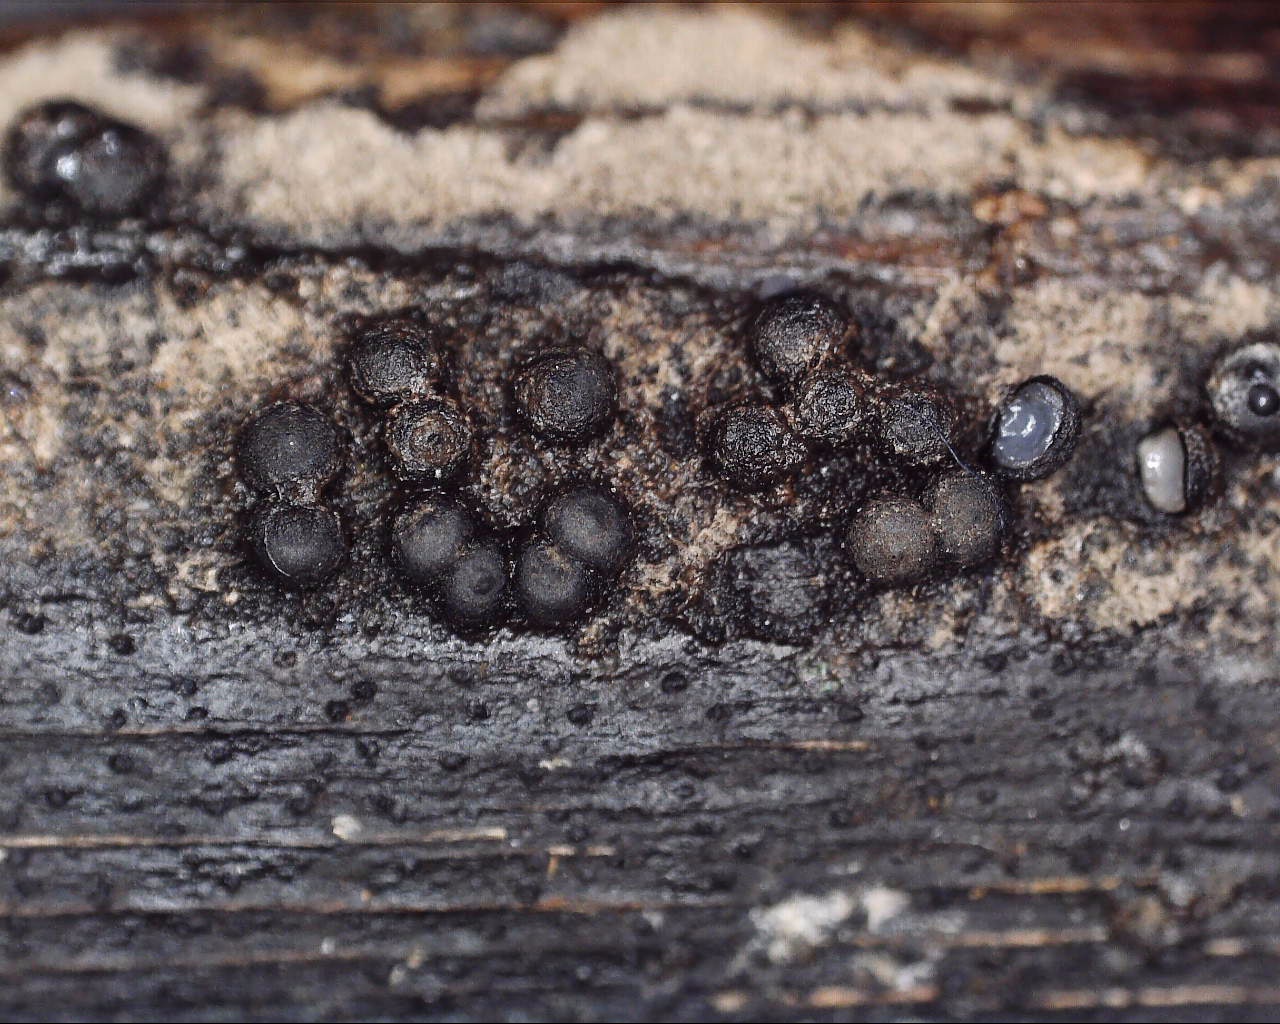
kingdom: Fungi
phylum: Ascomycota
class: Sordariomycetes
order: Xylariales
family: Xylariaceae
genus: Rosellinia
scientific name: Rosellinia
